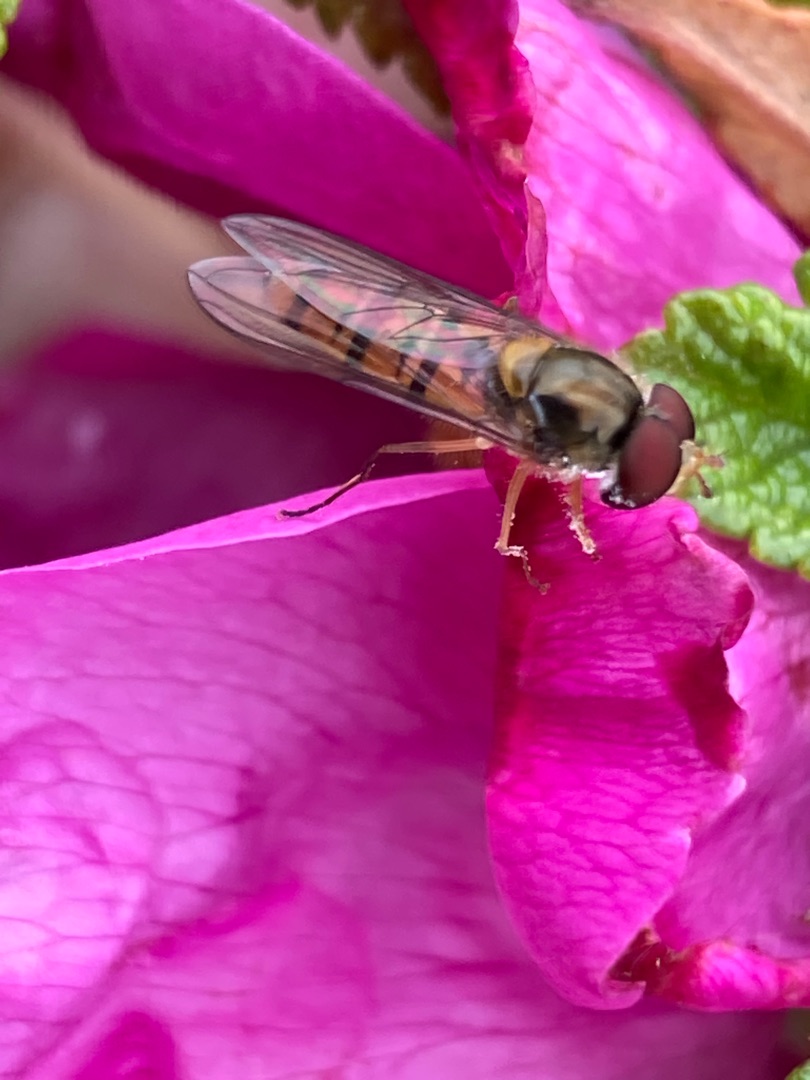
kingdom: Animalia
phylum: Arthropoda
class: Insecta
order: Diptera
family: Syrphidae
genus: Episyrphus
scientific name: Episyrphus balteatus
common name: Dobbeltbåndet svirreflue
